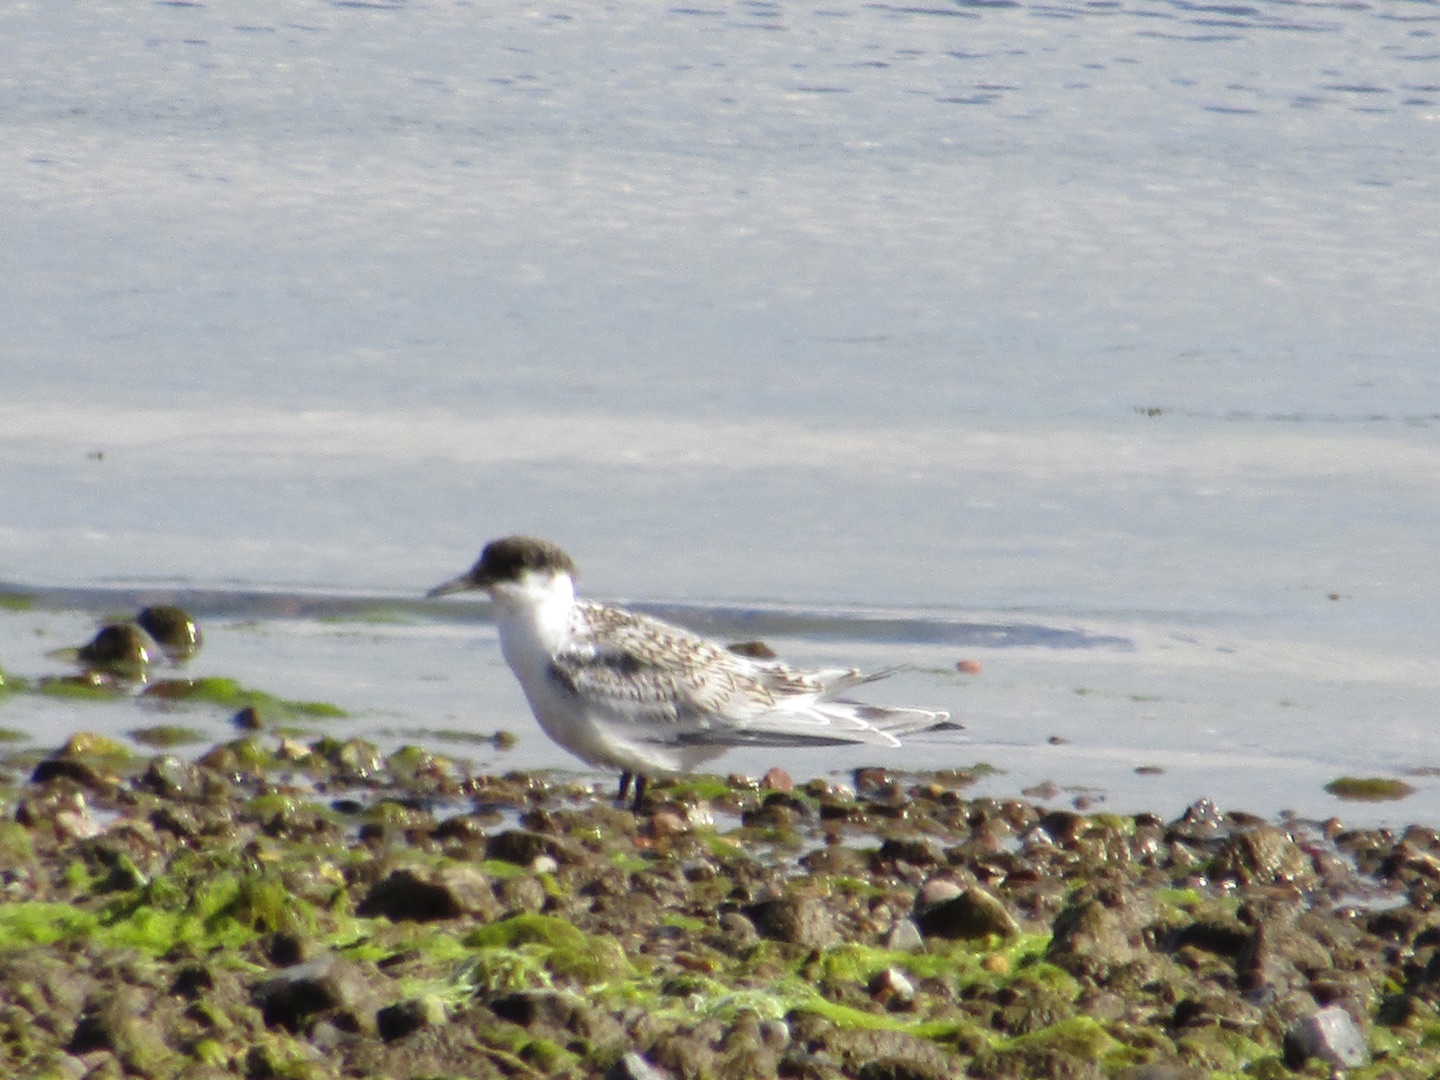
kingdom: Animalia
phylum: Chordata
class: Aves
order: Charadriiformes
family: Laridae
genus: Thalasseus
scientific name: Thalasseus sandvicensis
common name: Splitterne
